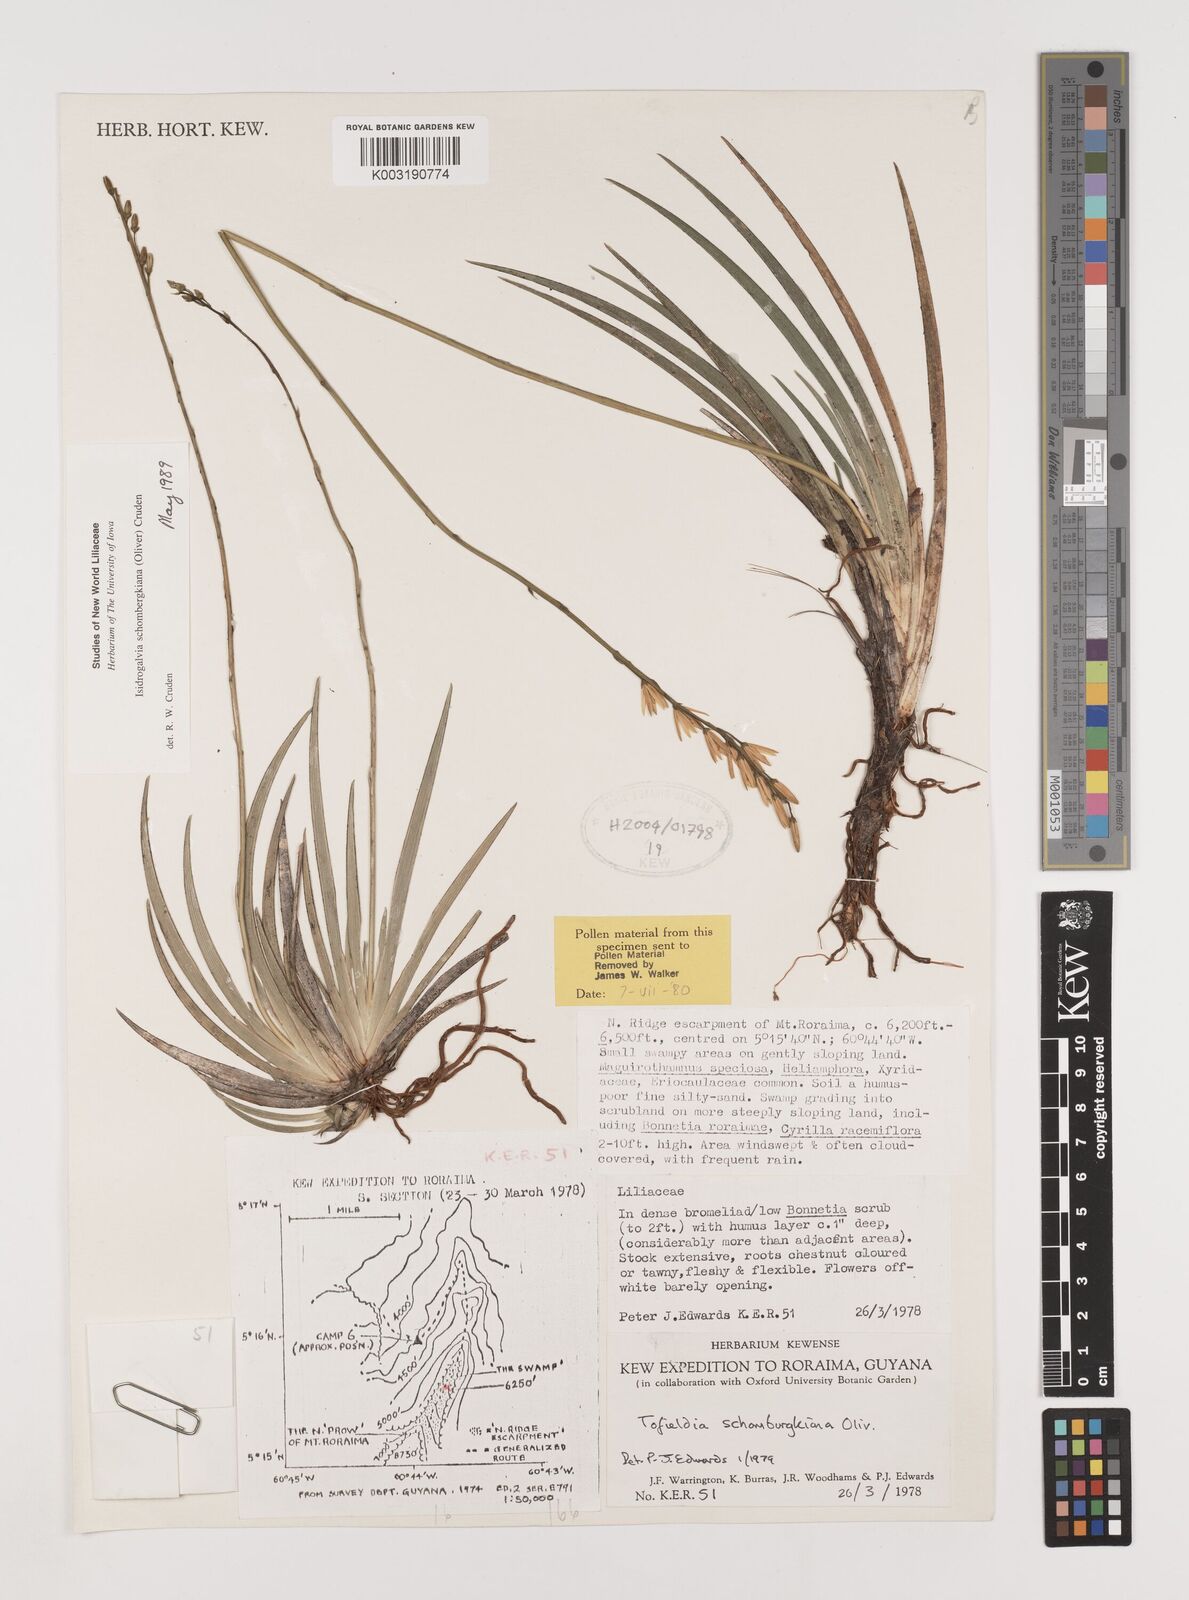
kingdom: Plantae
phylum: Tracheophyta
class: Liliopsida
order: Alismatales
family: Tofieldiaceae
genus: Harperocallis
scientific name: Harperocallis schomburgkiana
